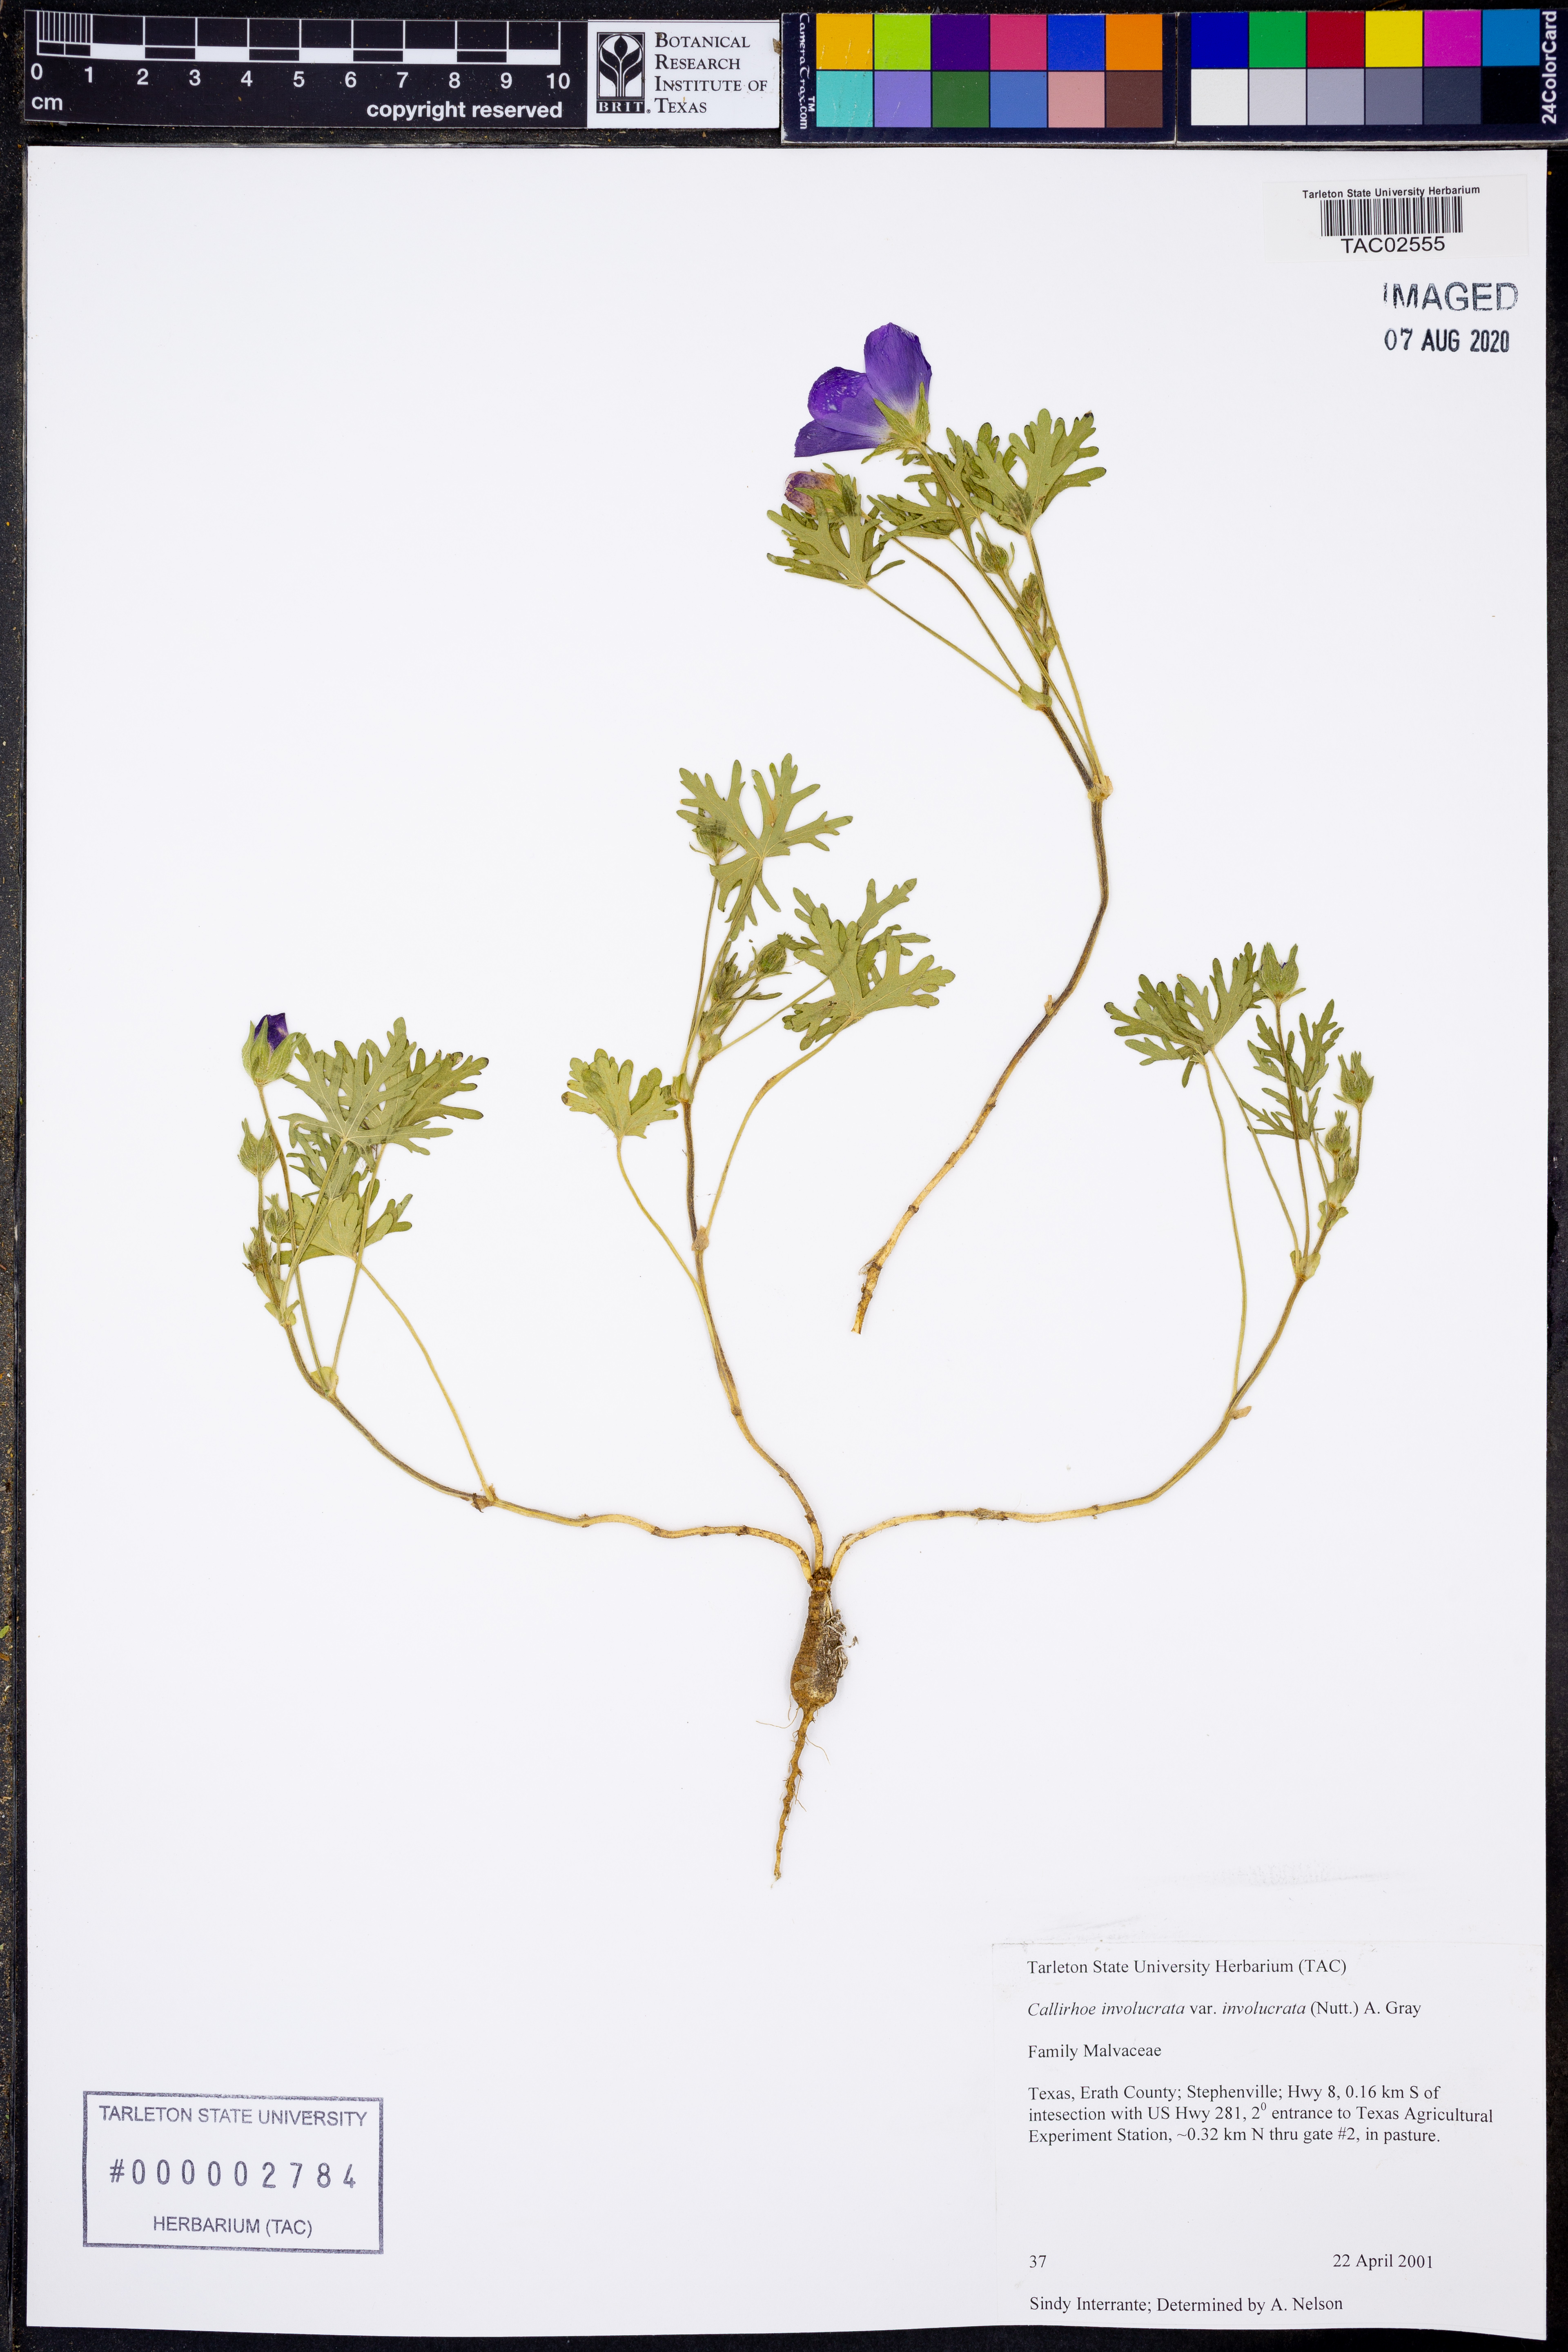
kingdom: Plantae
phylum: Tracheophyta
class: Magnoliopsida
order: Malvales
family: Malvaceae
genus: Callirhoe
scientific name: Callirhoe involucrata
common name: Purple poppy-mallow
